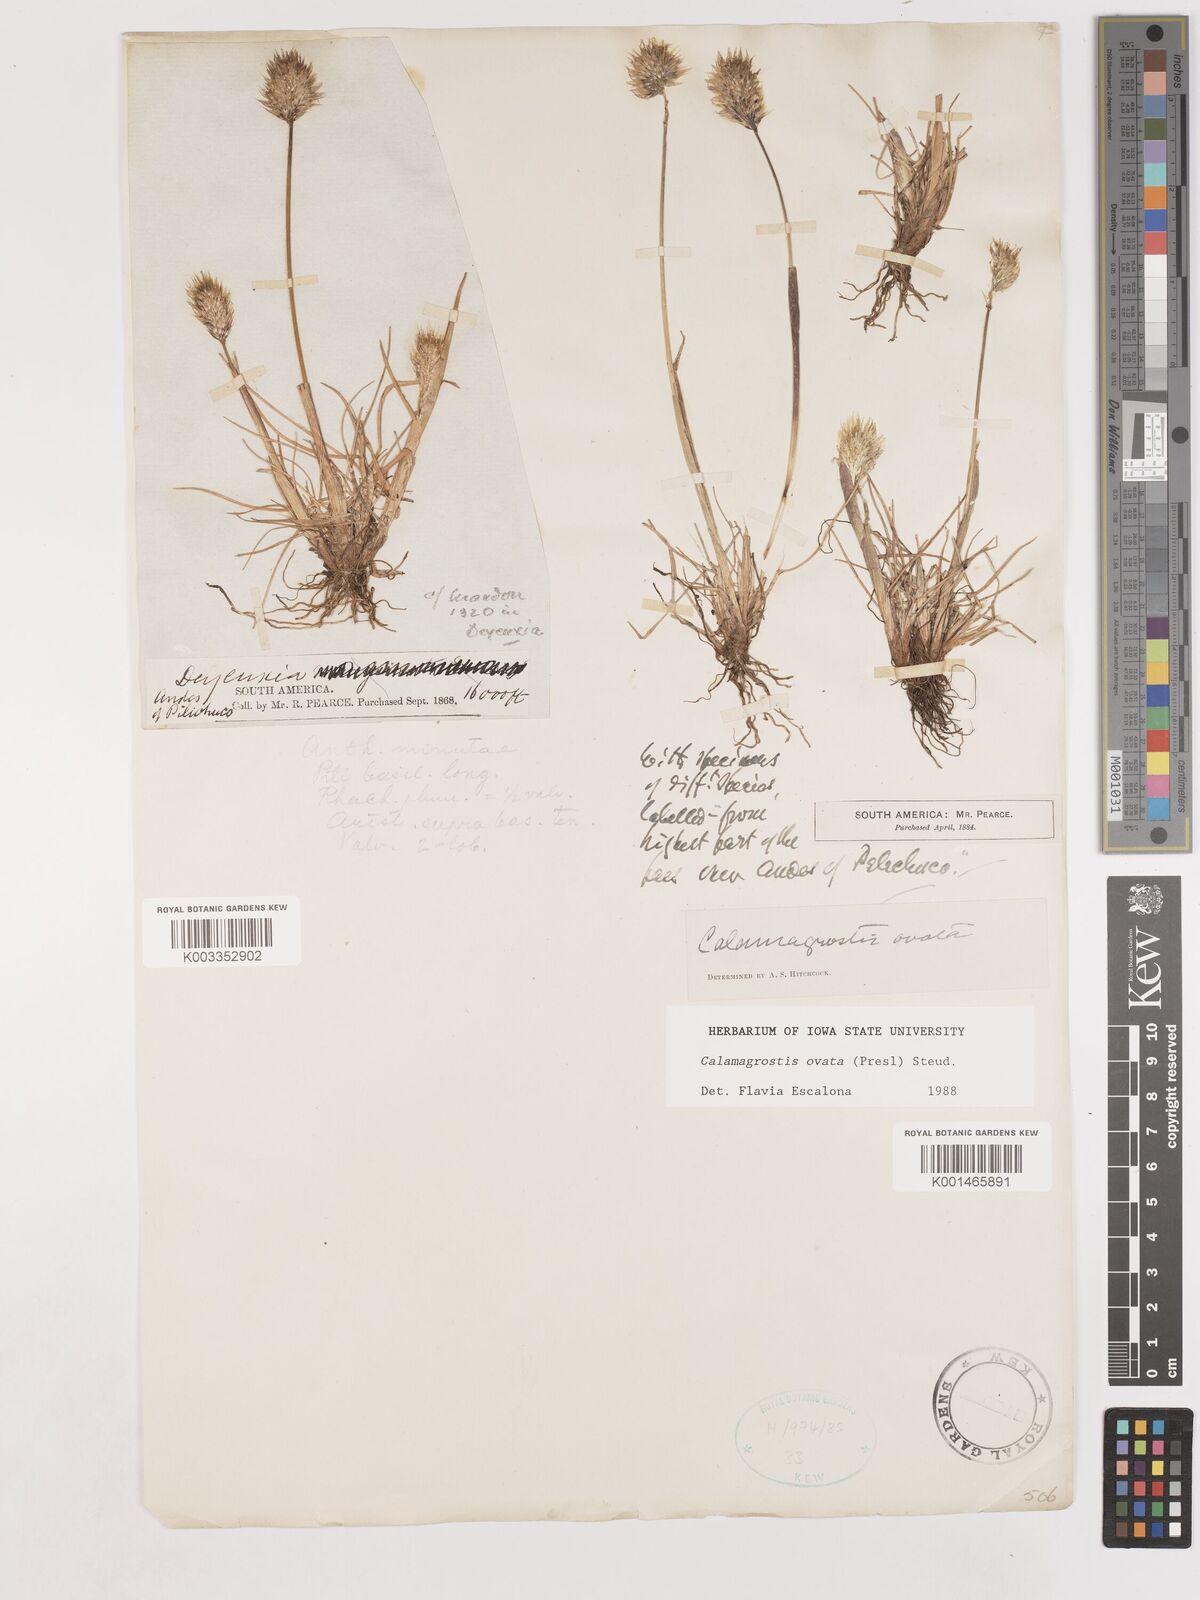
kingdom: Plantae
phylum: Tracheophyta
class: Liliopsida
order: Poales
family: Poaceae
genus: Deschampsia
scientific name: Deschampsia ovata
